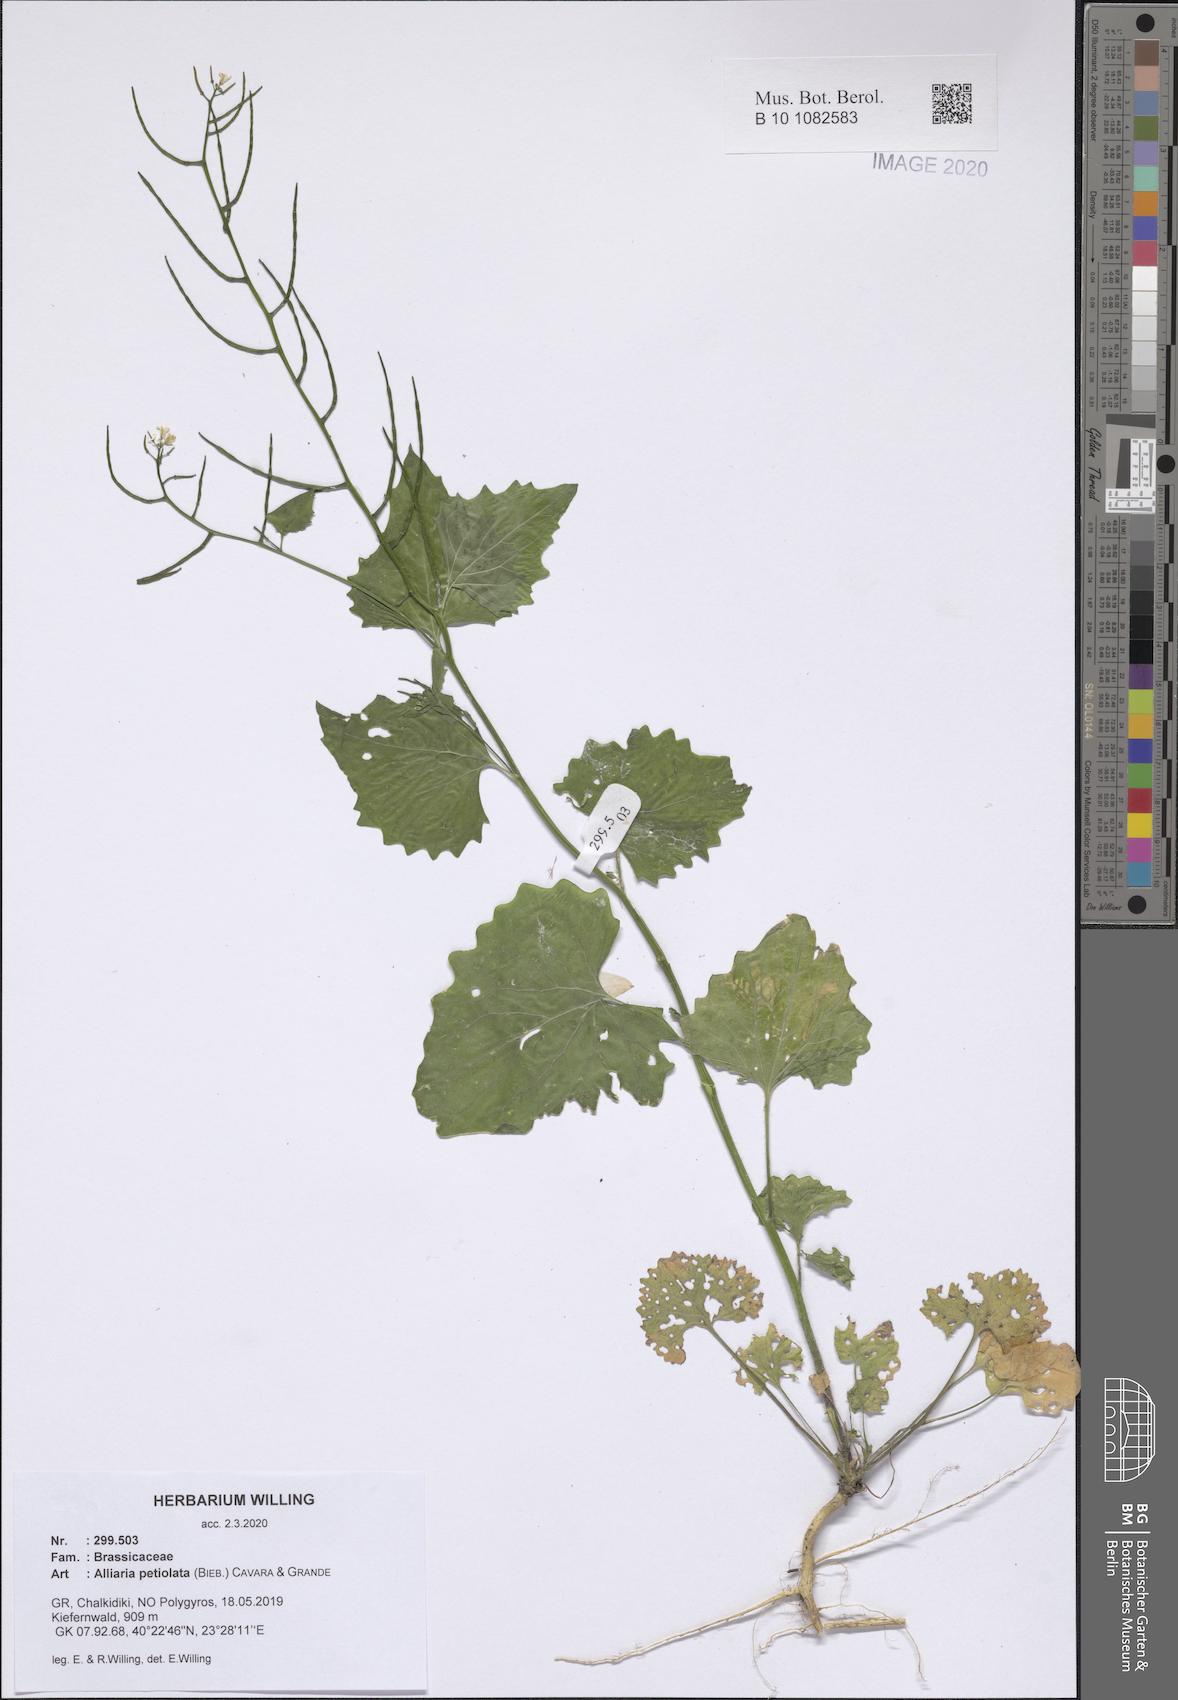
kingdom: Plantae
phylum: Tracheophyta
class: Magnoliopsida
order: Brassicales
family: Brassicaceae
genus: Alliaria
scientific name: Alliaria petiolata
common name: Garlic mustard
